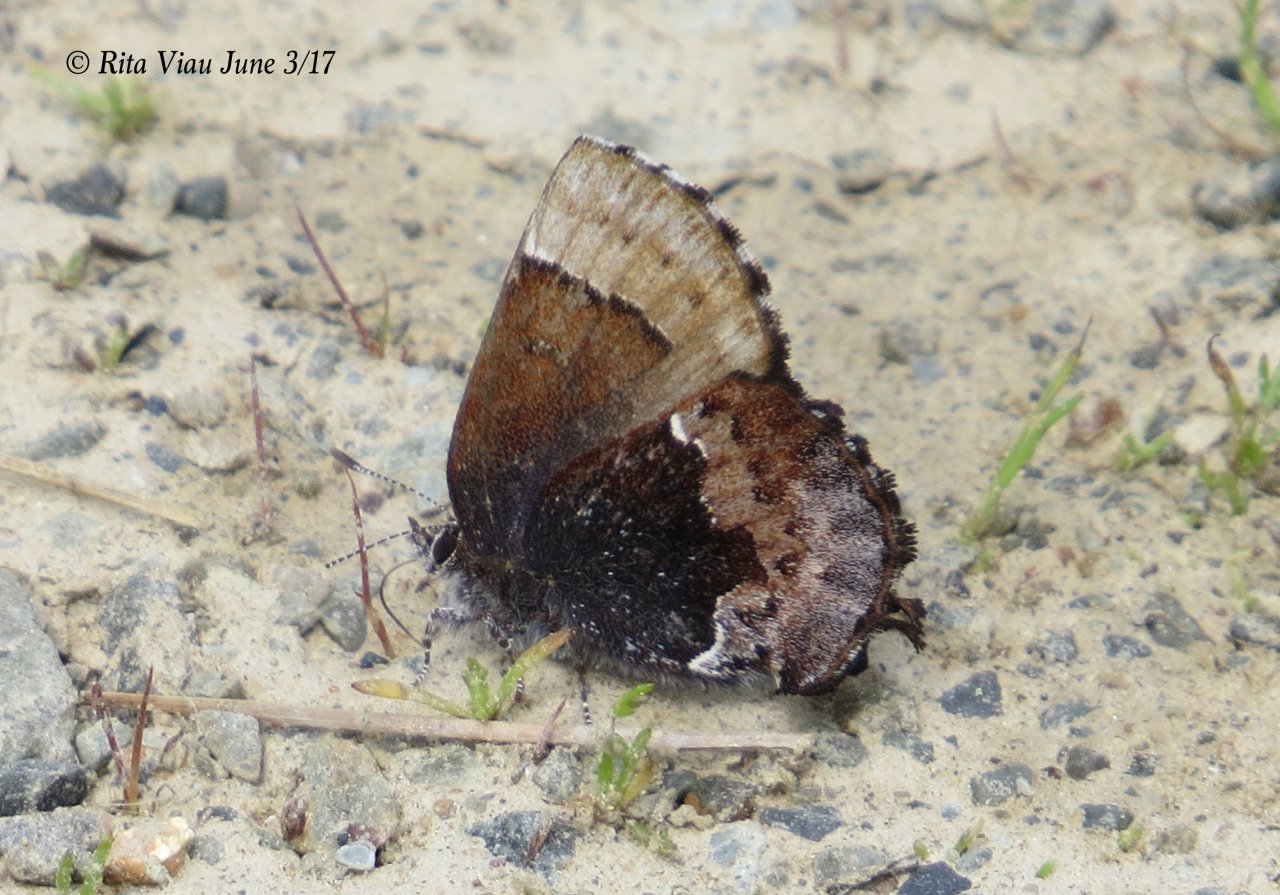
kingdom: Animalia
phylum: Arthropoda
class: Insecta
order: Lepidoptera
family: Lycaenidae
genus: Incisalia
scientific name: Incisalia henrici
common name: Henry's Elfin
